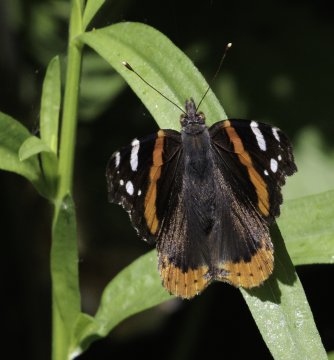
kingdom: Animalia
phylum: Arthropoda
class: Insecta
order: Lepidoptera
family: Nymphalidae
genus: Vanessa
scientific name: Vanessa atalanta
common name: Red Admiral
